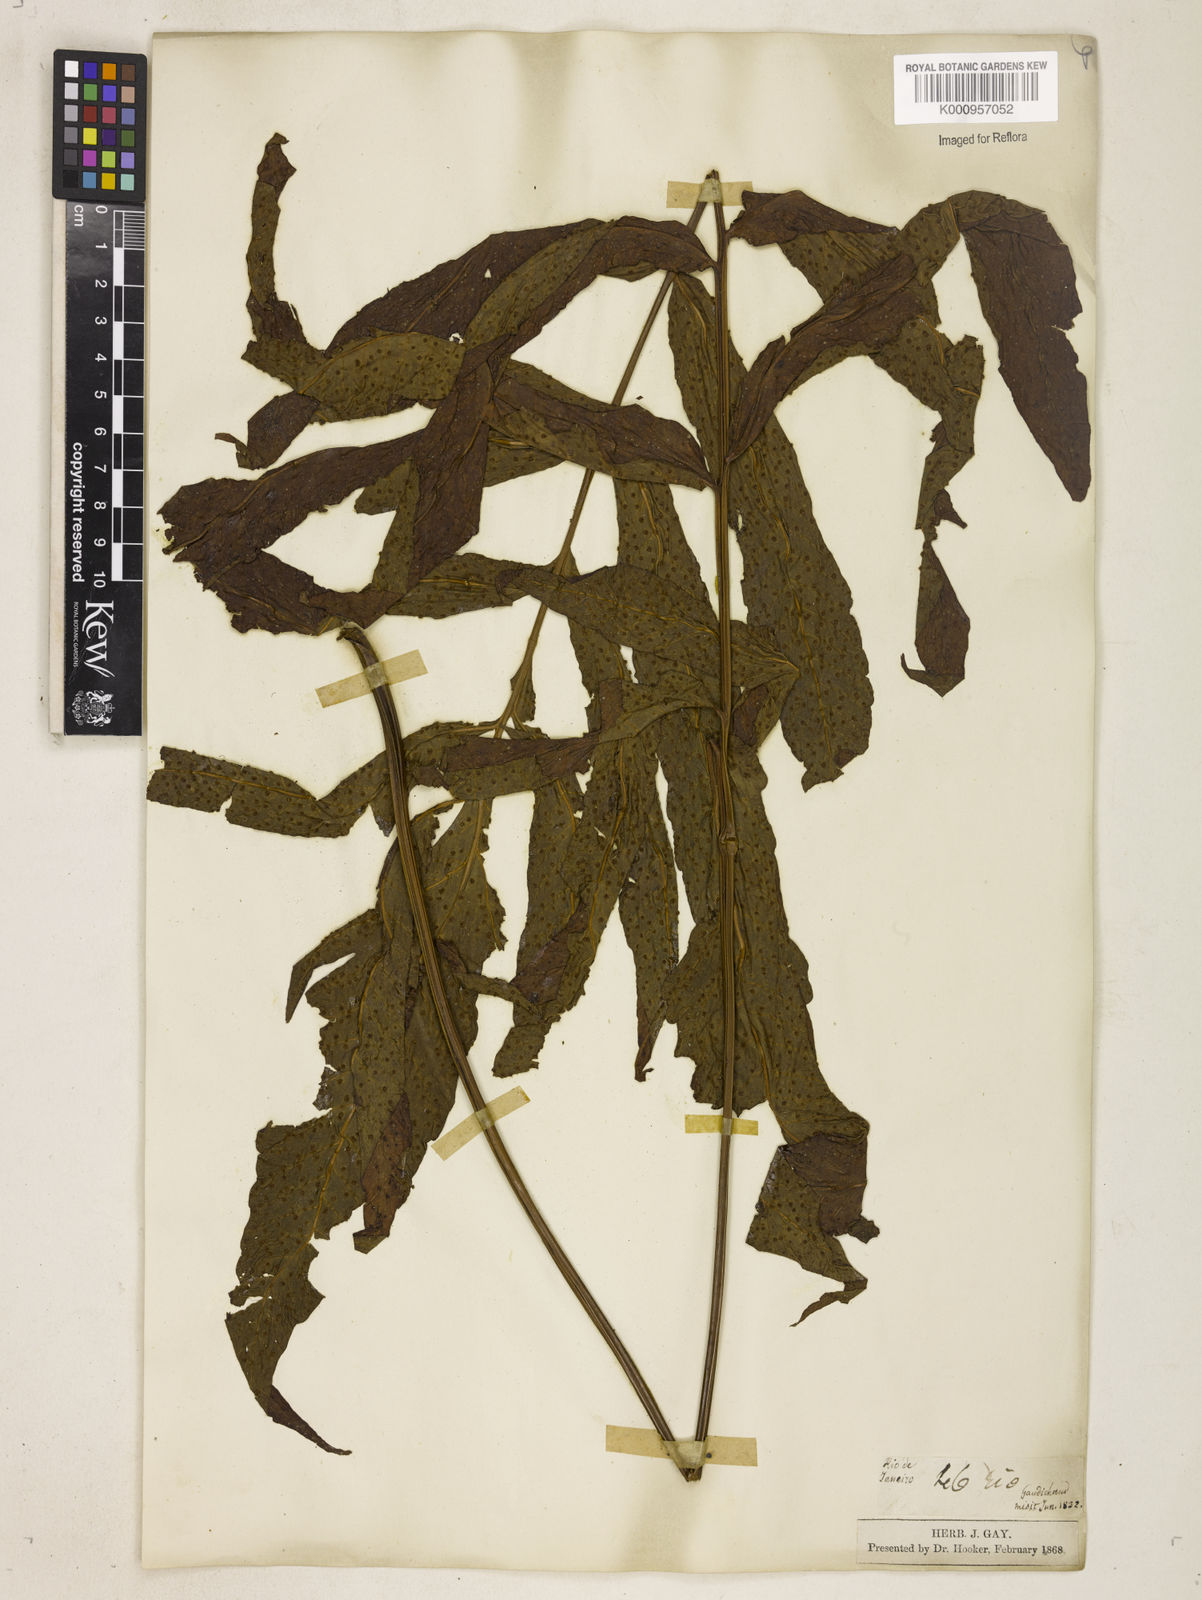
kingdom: Plantae
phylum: Tracheophyta
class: Polypodiopsida
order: Polypodiales
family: Tectariaceae
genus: Tectaria
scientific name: Tectaria incisa
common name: Incised halberd fern
